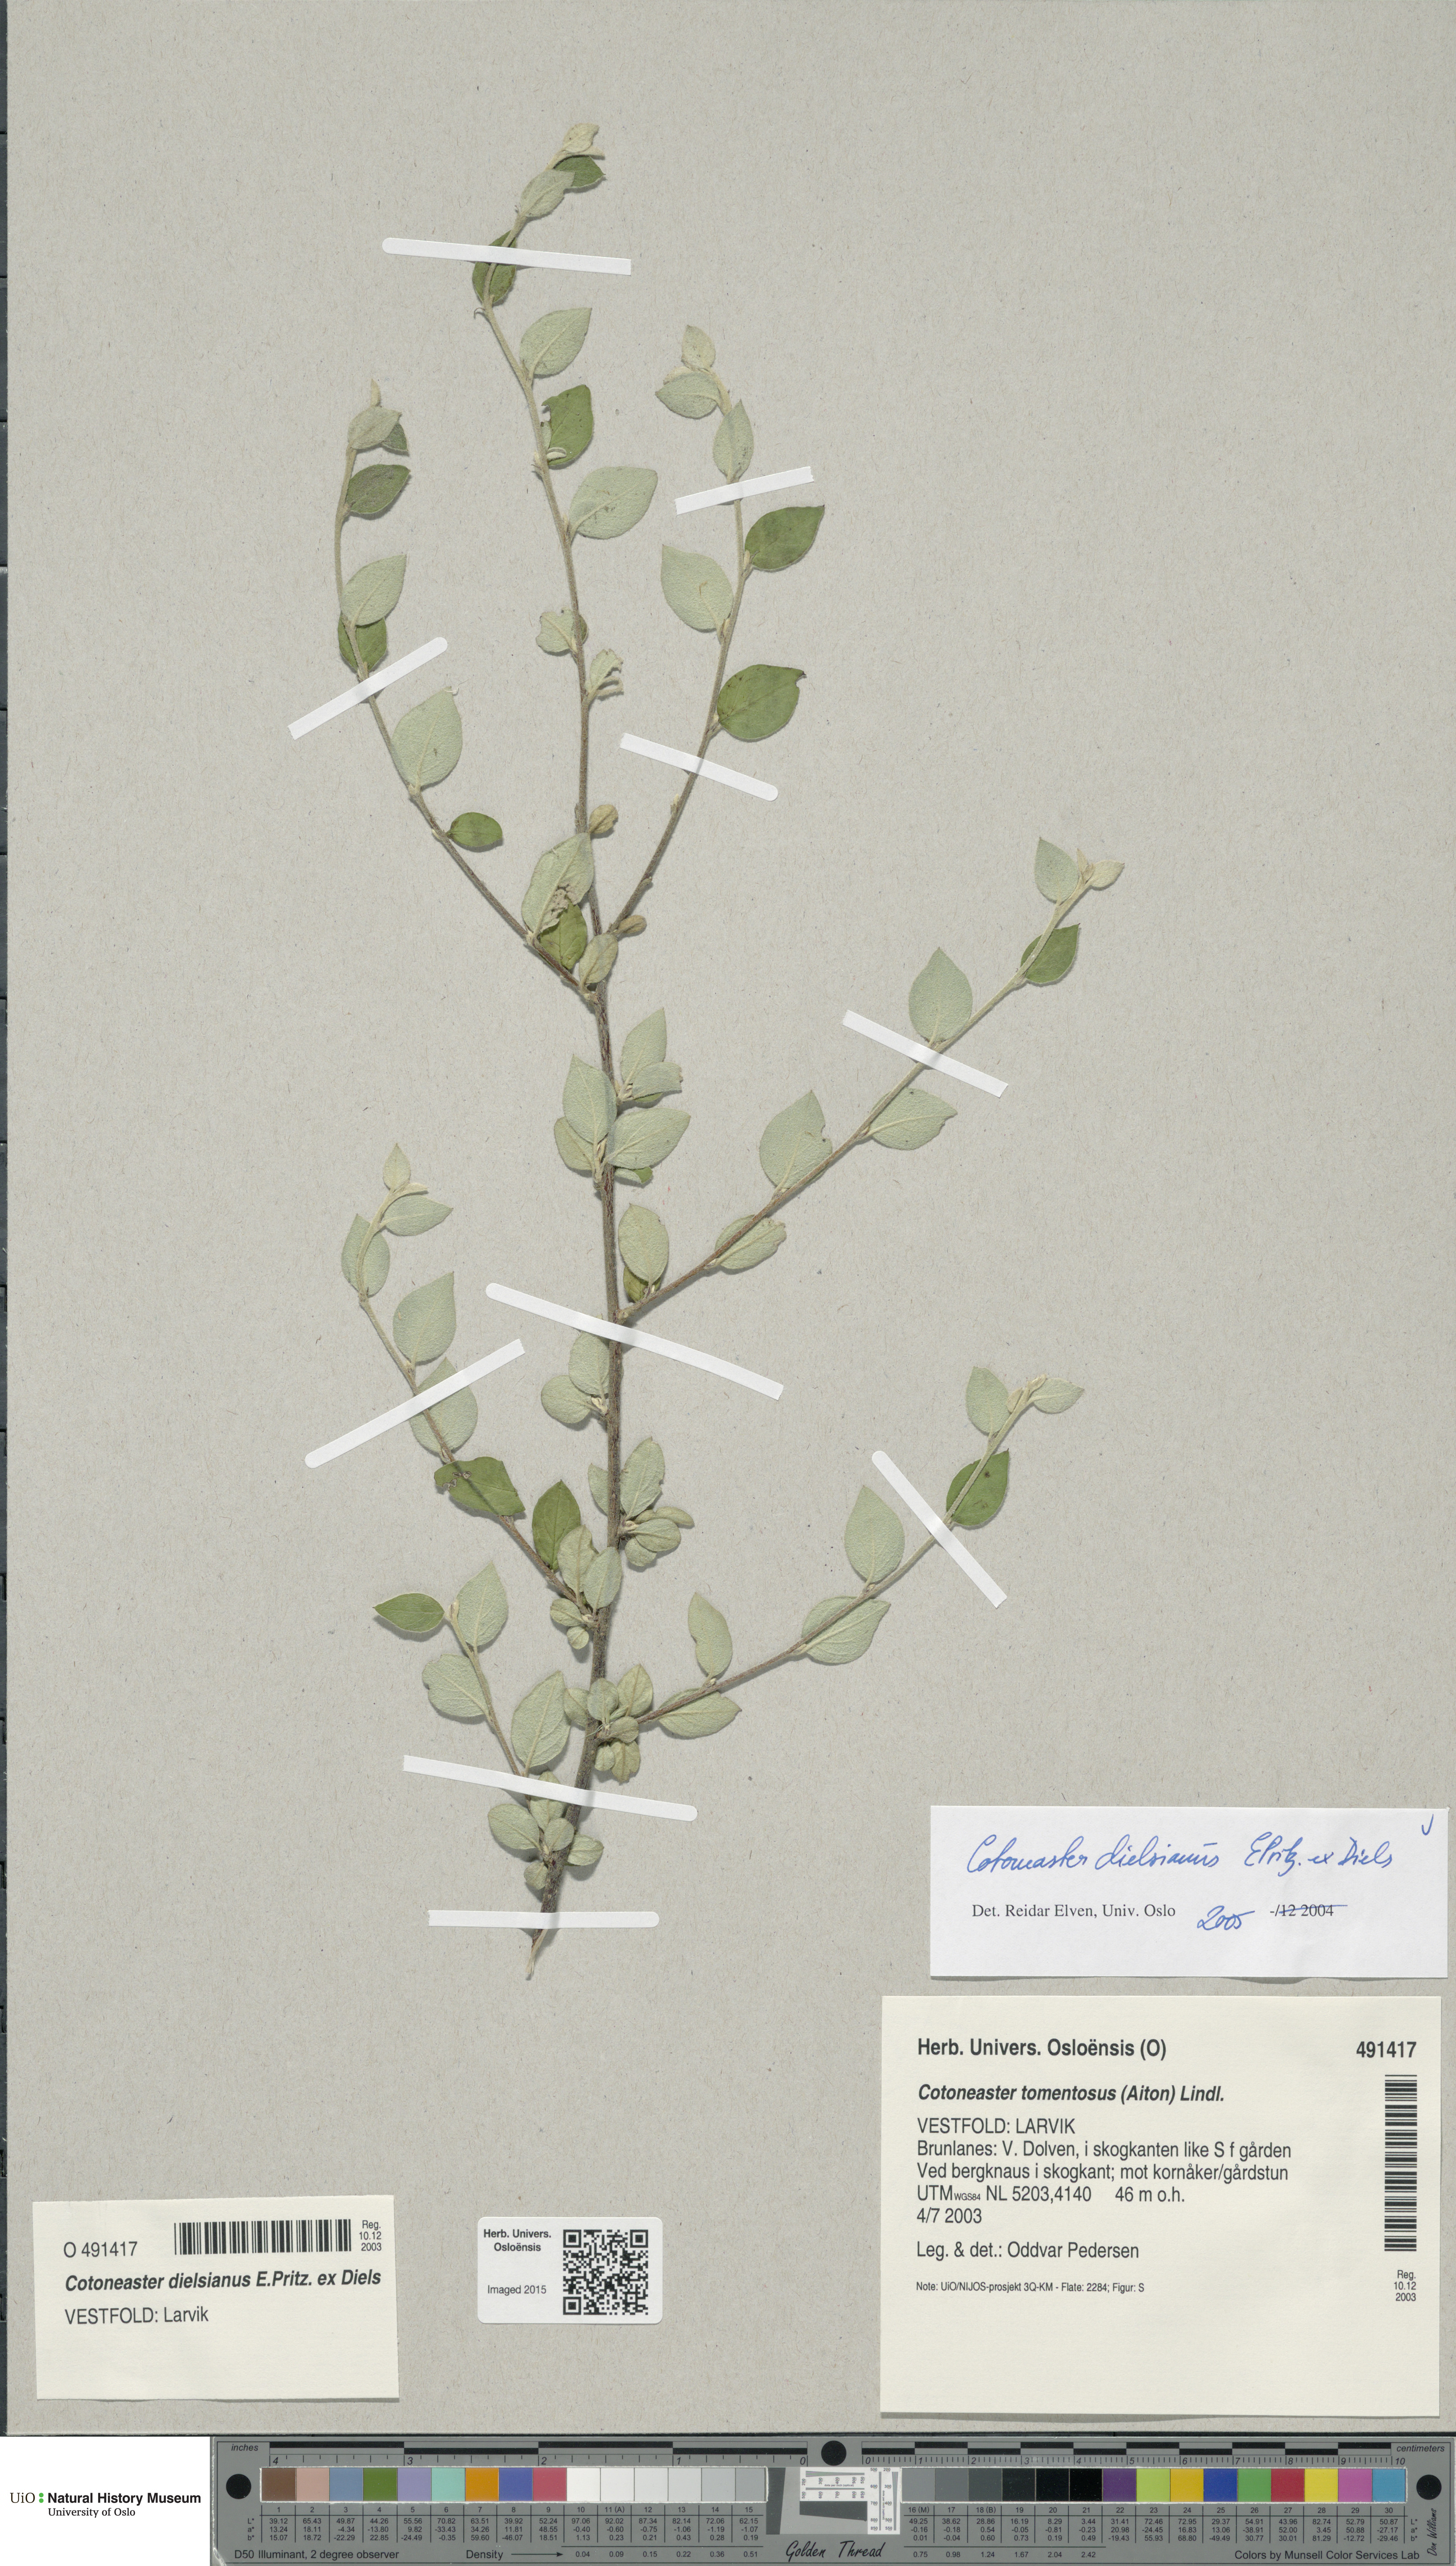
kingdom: Plantae
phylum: Tracheophyta
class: Magnoliopsida
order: Rosales
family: Rosaceae
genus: Cotoneaster
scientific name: Cotoneaster dielsianus
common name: Diels's cotoneaster
